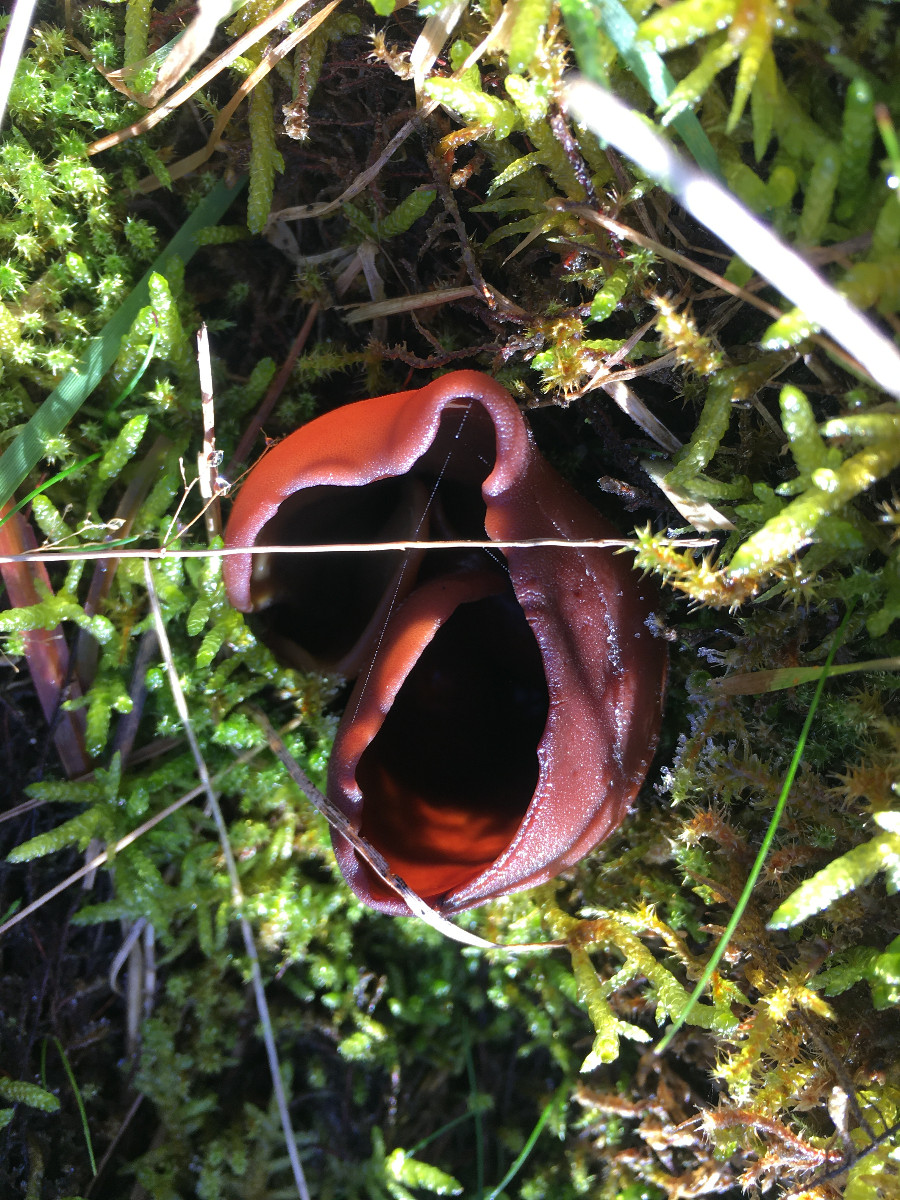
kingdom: Fungi
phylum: Ascomycota
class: Pezizomycetes
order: Pezizales
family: Otideaceae
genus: Otidea
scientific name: Otidea bufonia
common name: brun ørebæger
